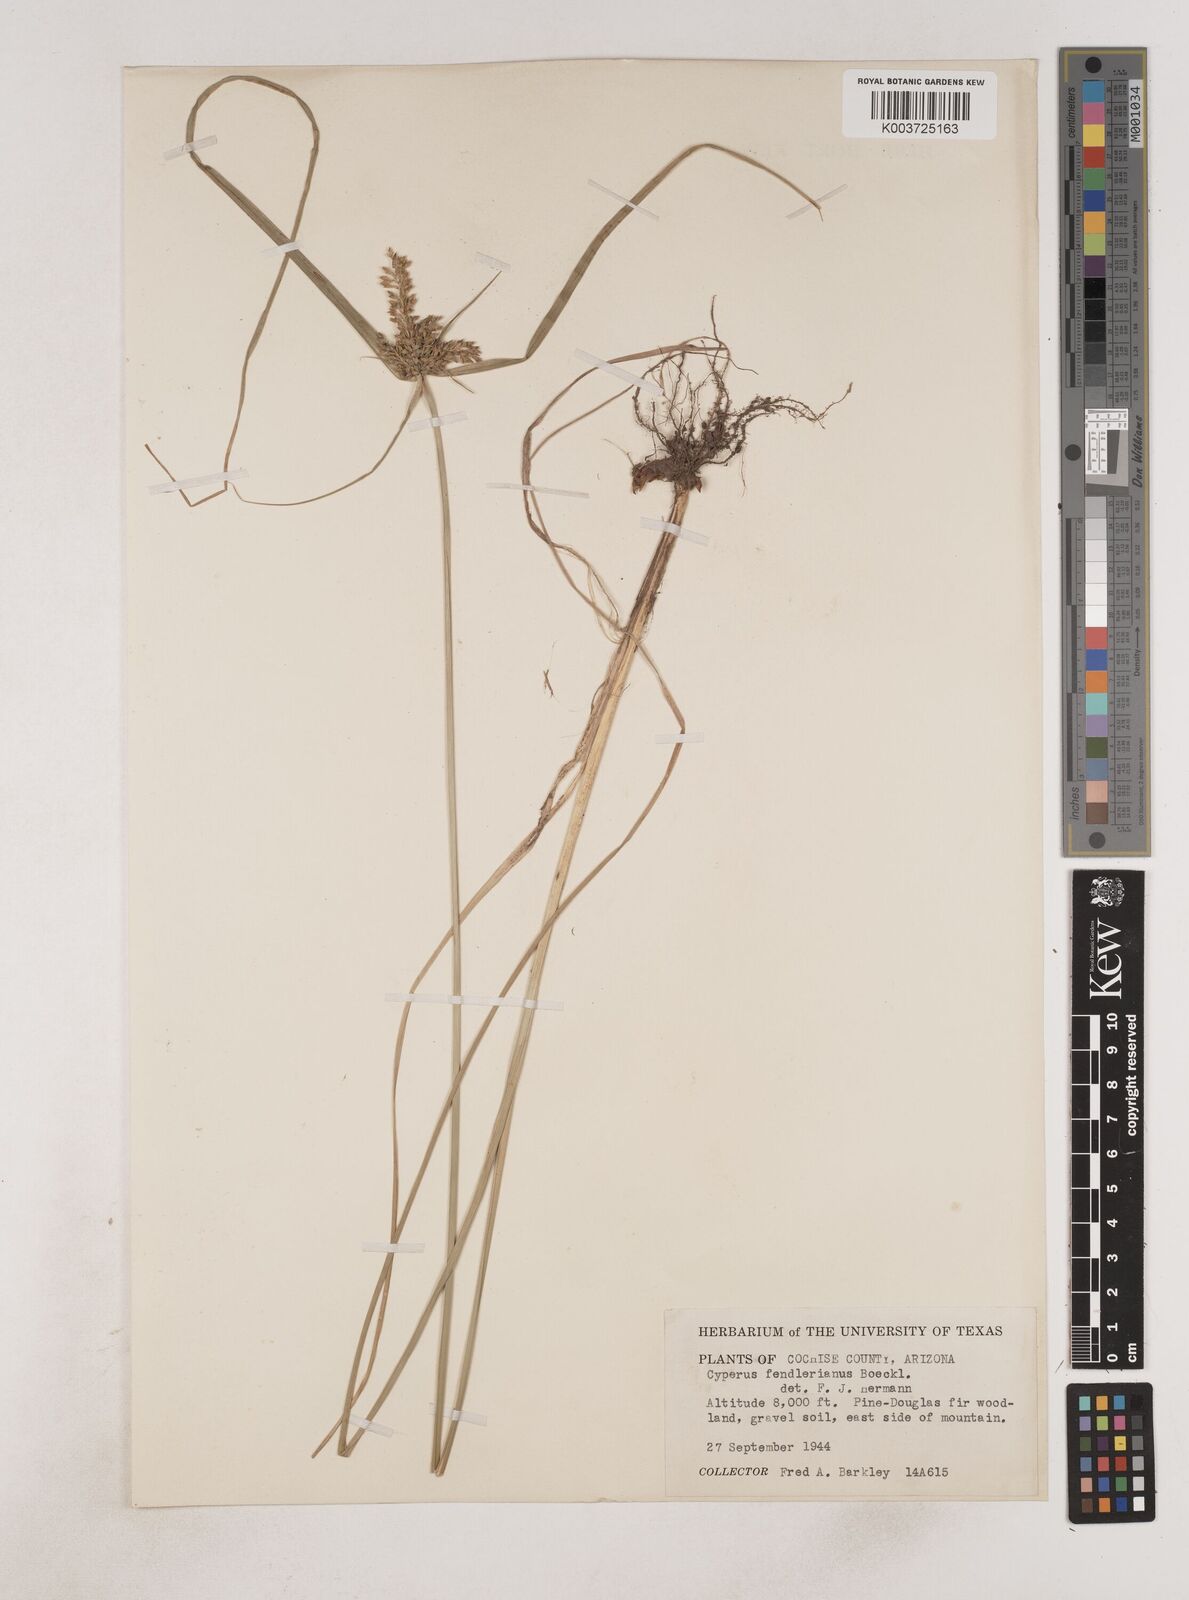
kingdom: Plantae
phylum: Tracheophyta
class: Liliopsida
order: Poales
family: Cyperaceae
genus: Cyperus
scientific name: Cyperus fendlerianus
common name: Fendler flat sedge
